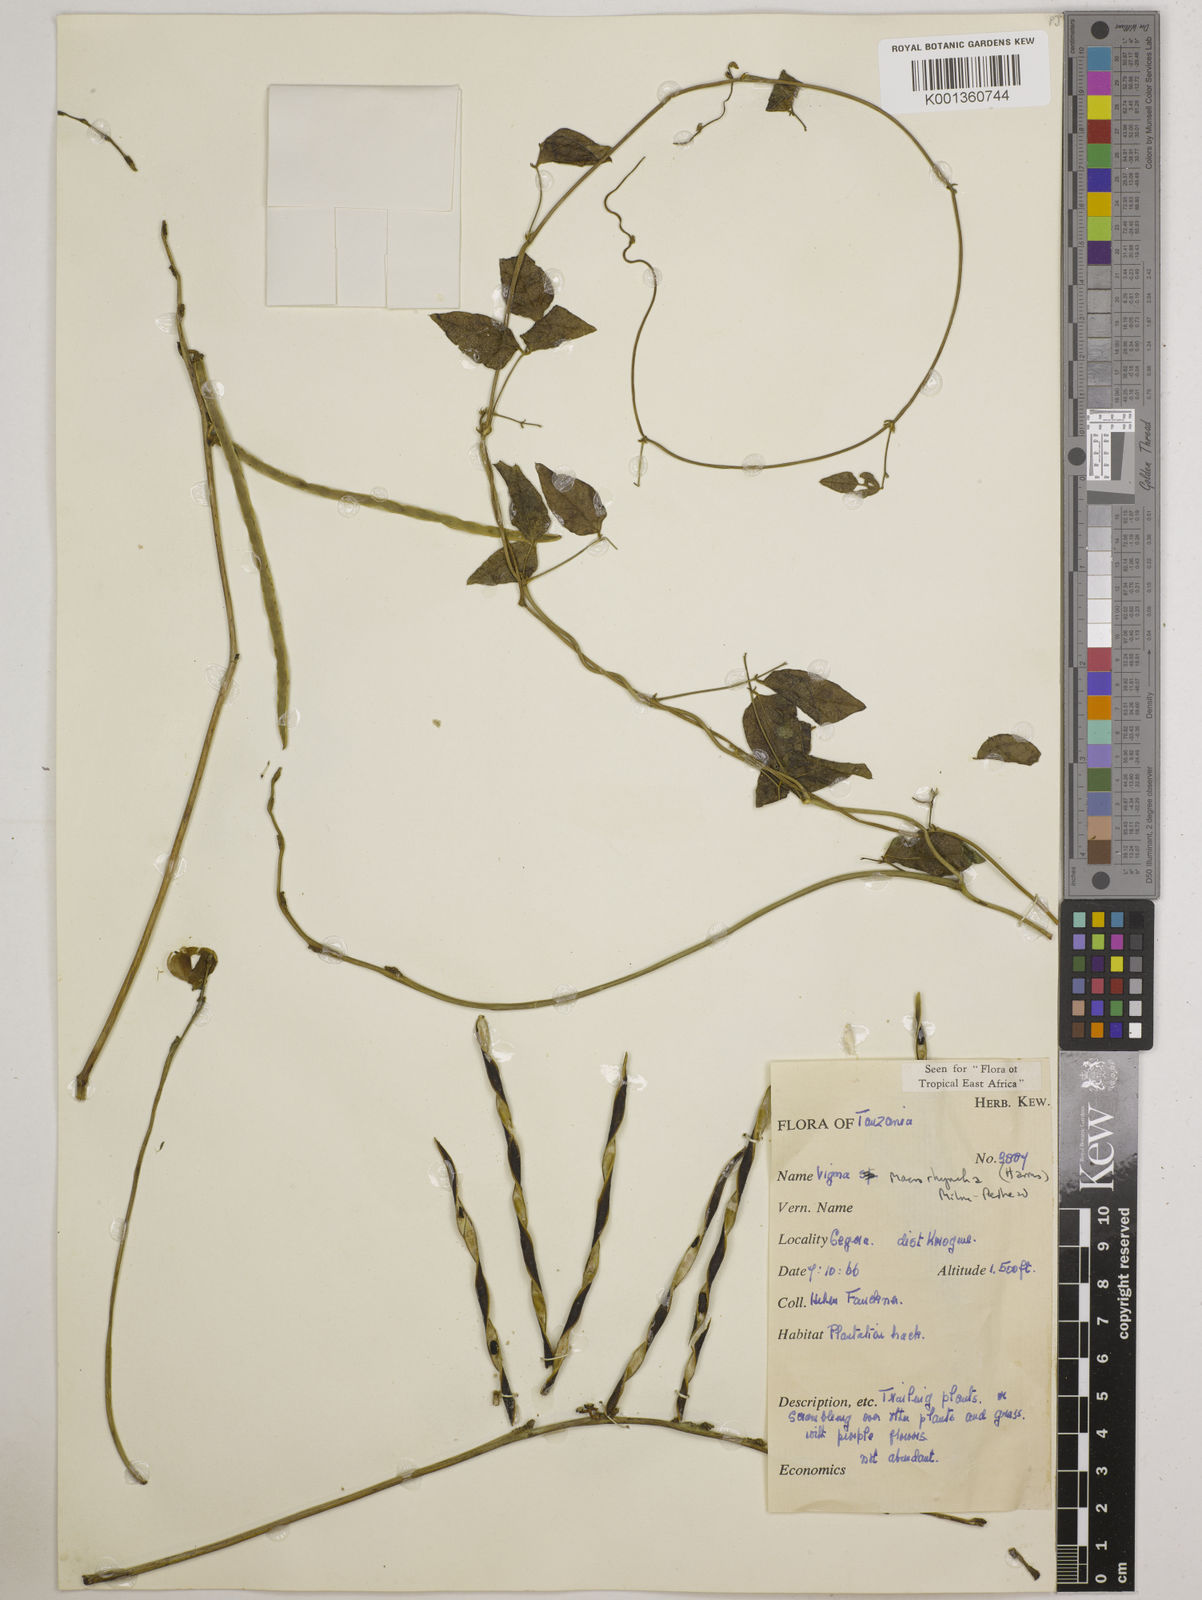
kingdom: Plantae
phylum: Tracheophyta
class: Magnoliopsida
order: Fabales
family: Fabaceae
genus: Wajira
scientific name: Wajira grahamiana
